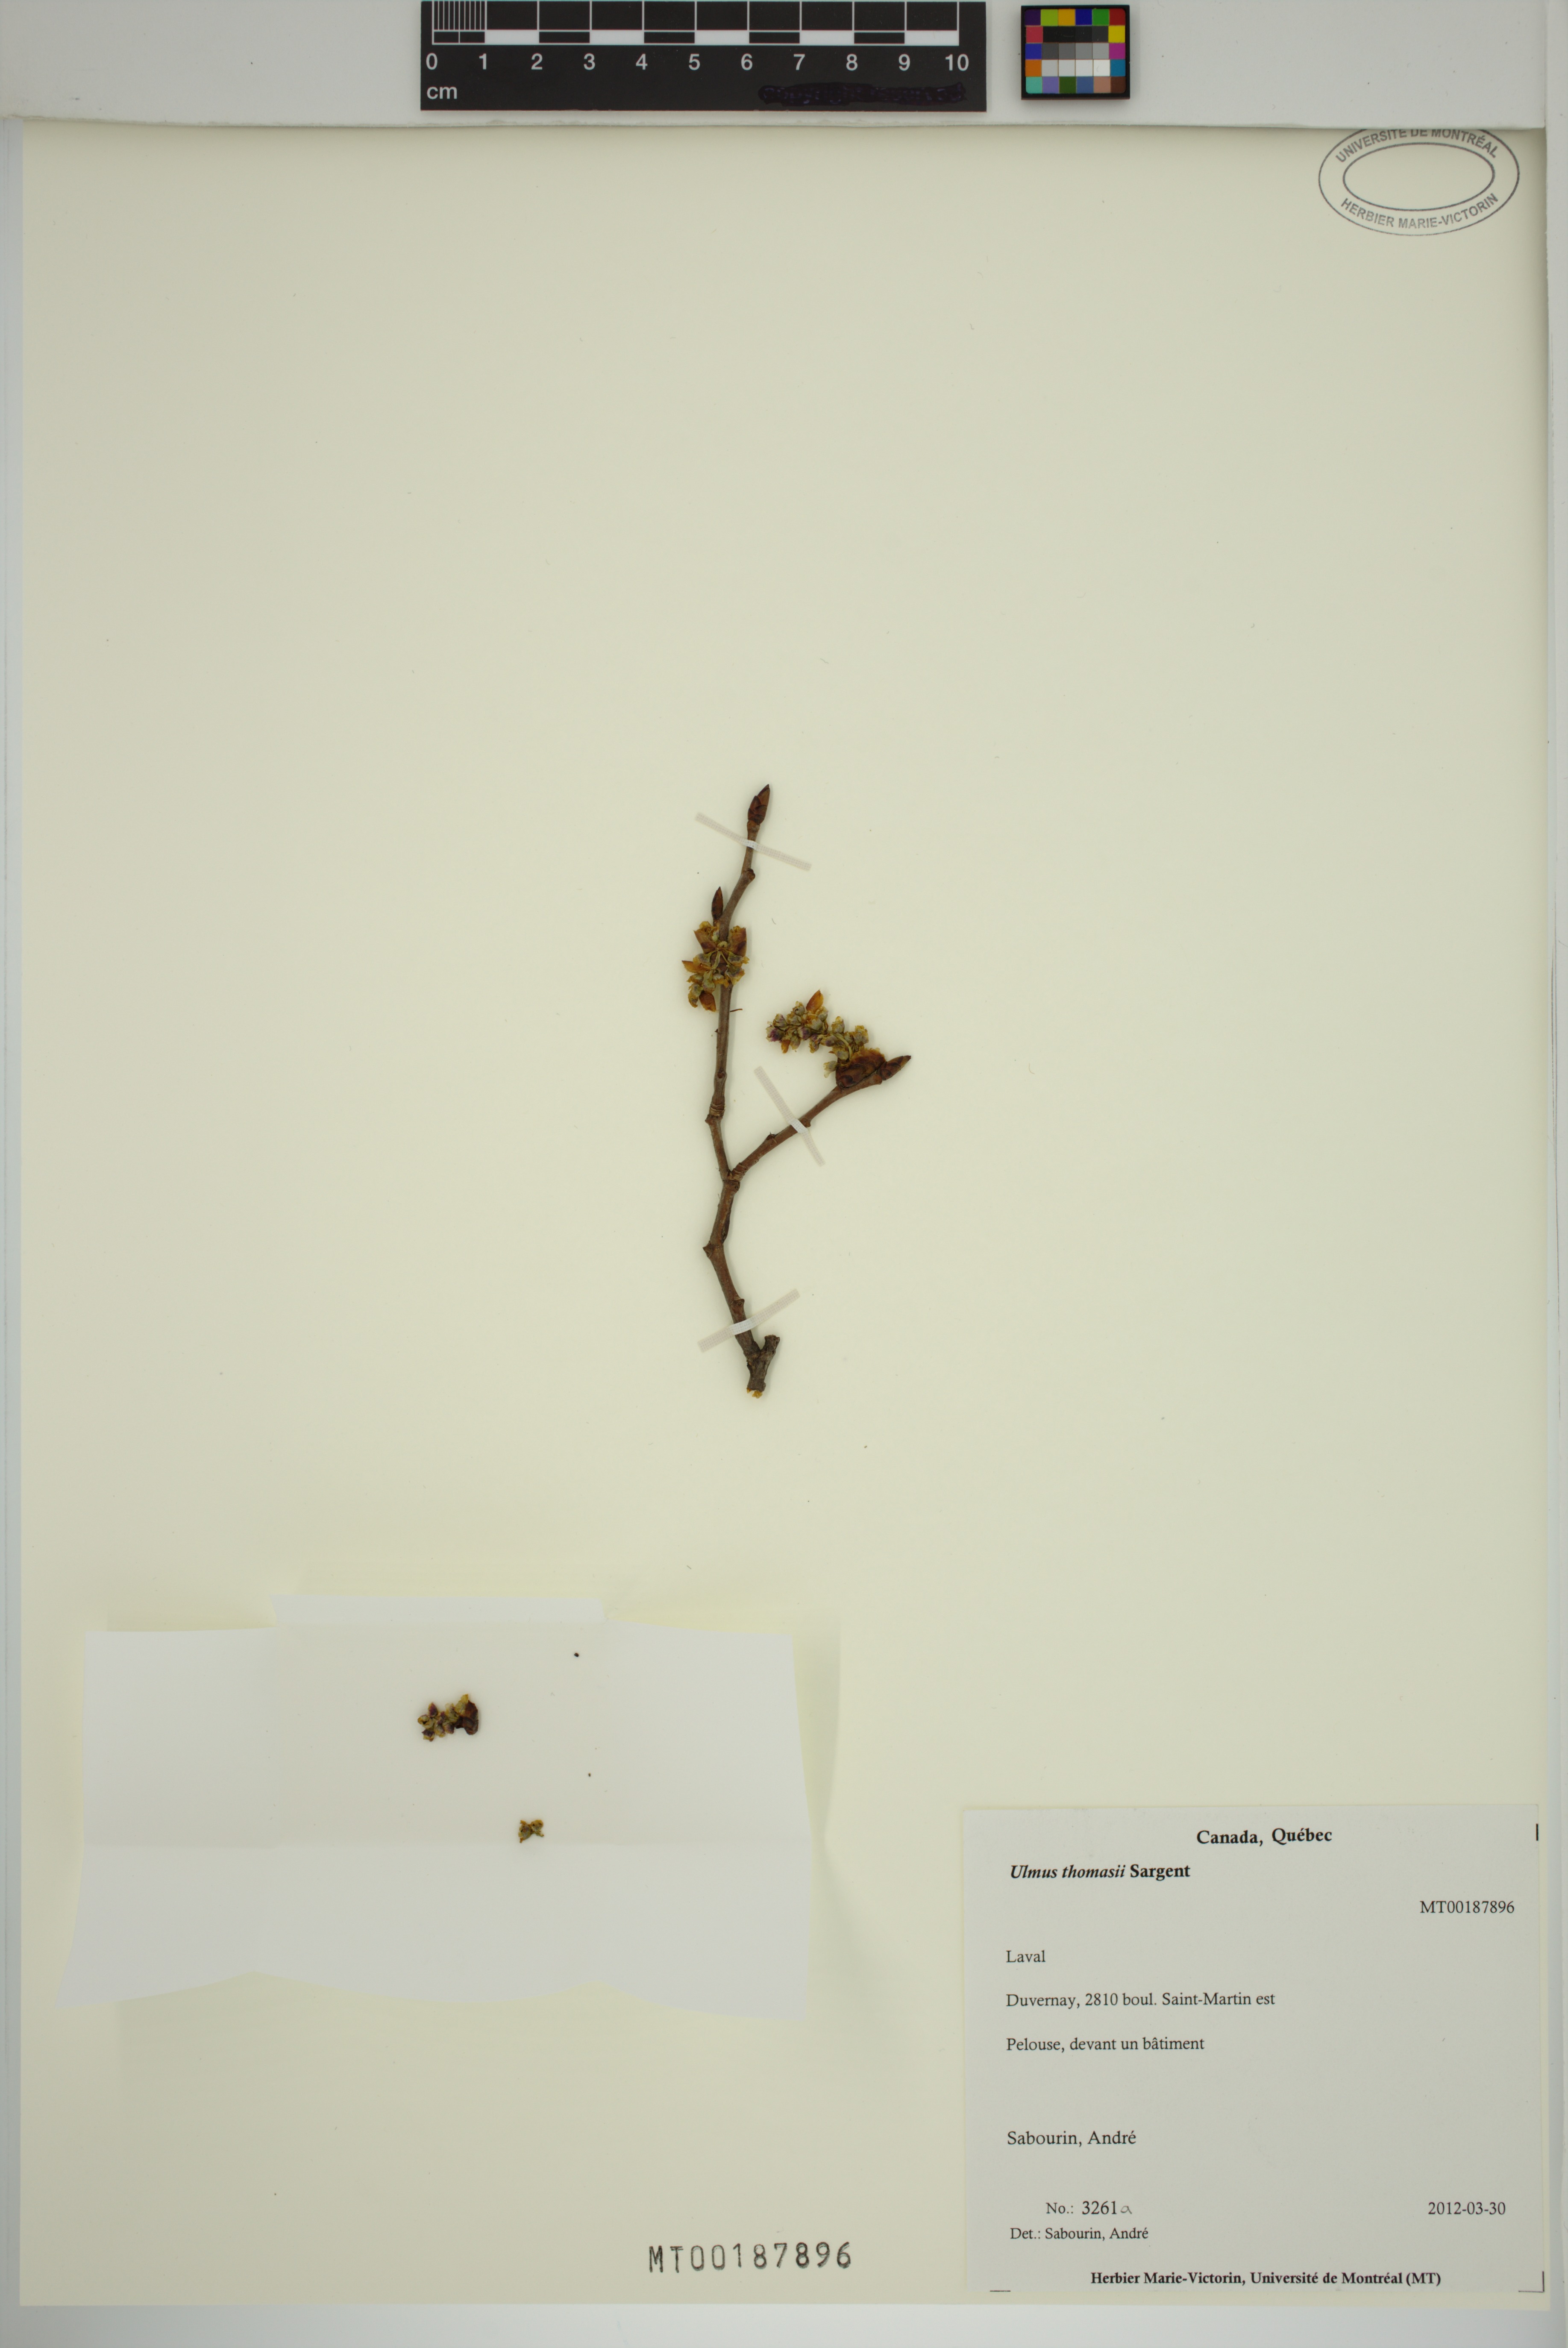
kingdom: Plantae
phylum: Tracheophyta
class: Magnoliopsida
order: Rosales
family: Ulmaceae
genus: Ulmus
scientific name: Ulmus thomasii
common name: Rock elm
